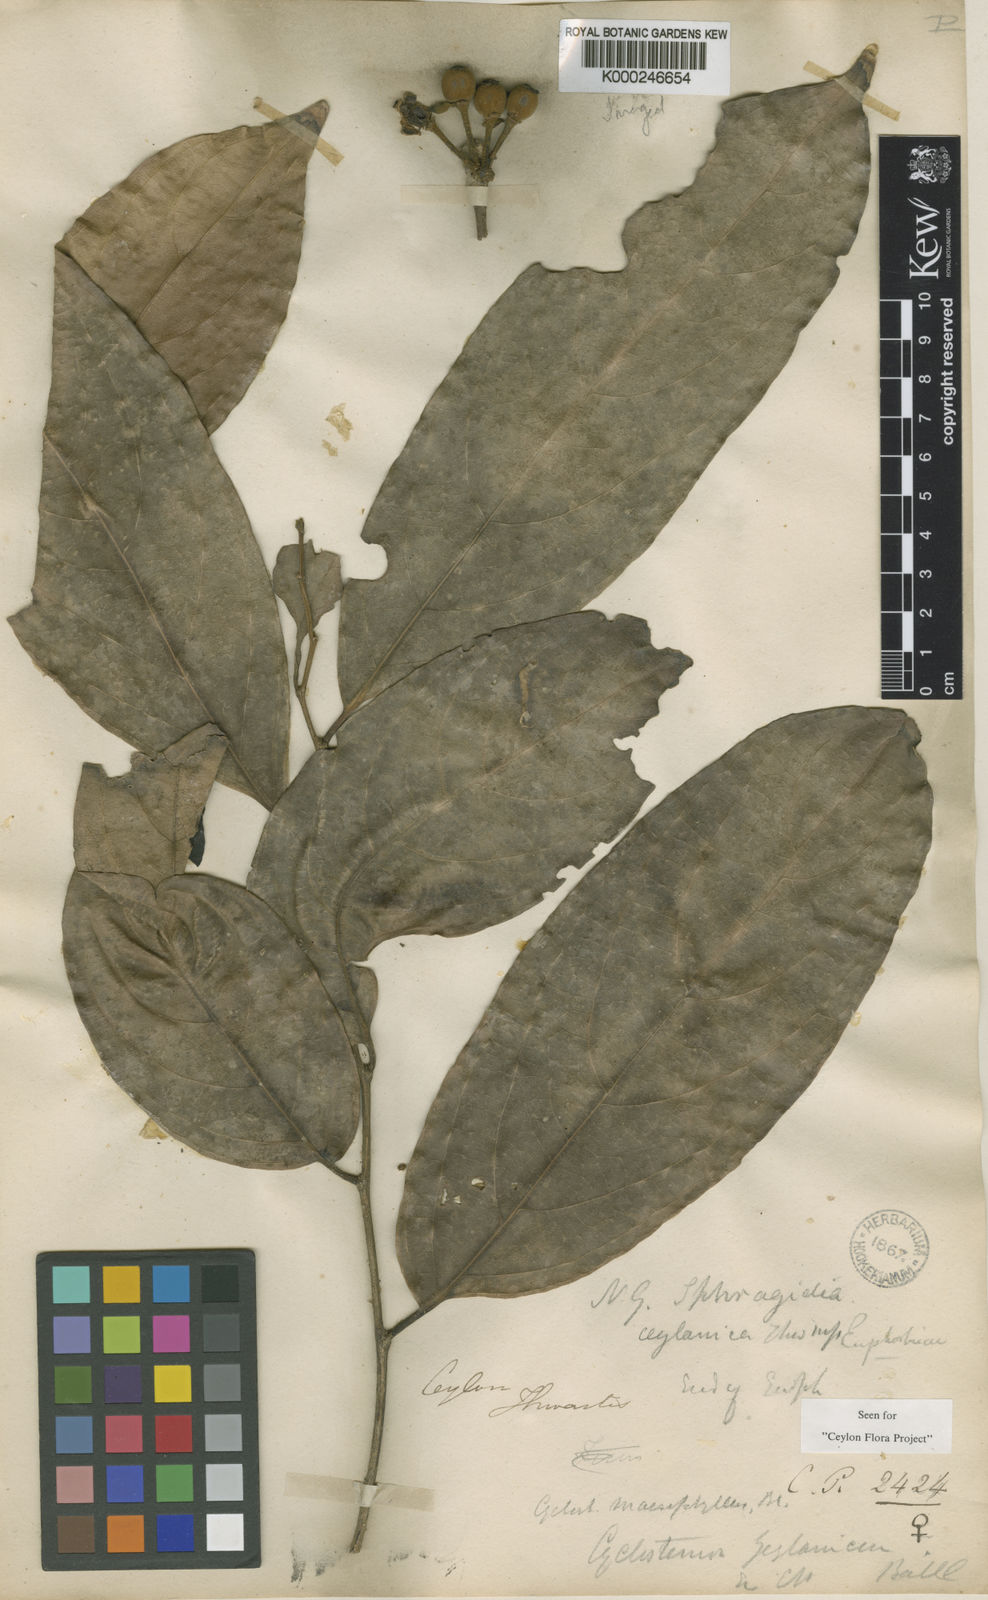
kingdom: Plantae
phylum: Tracheophyta
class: Magnoliopsida
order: Malpighiales
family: Putranjivaceae
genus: Drypetes
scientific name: Drypetes longifolia
